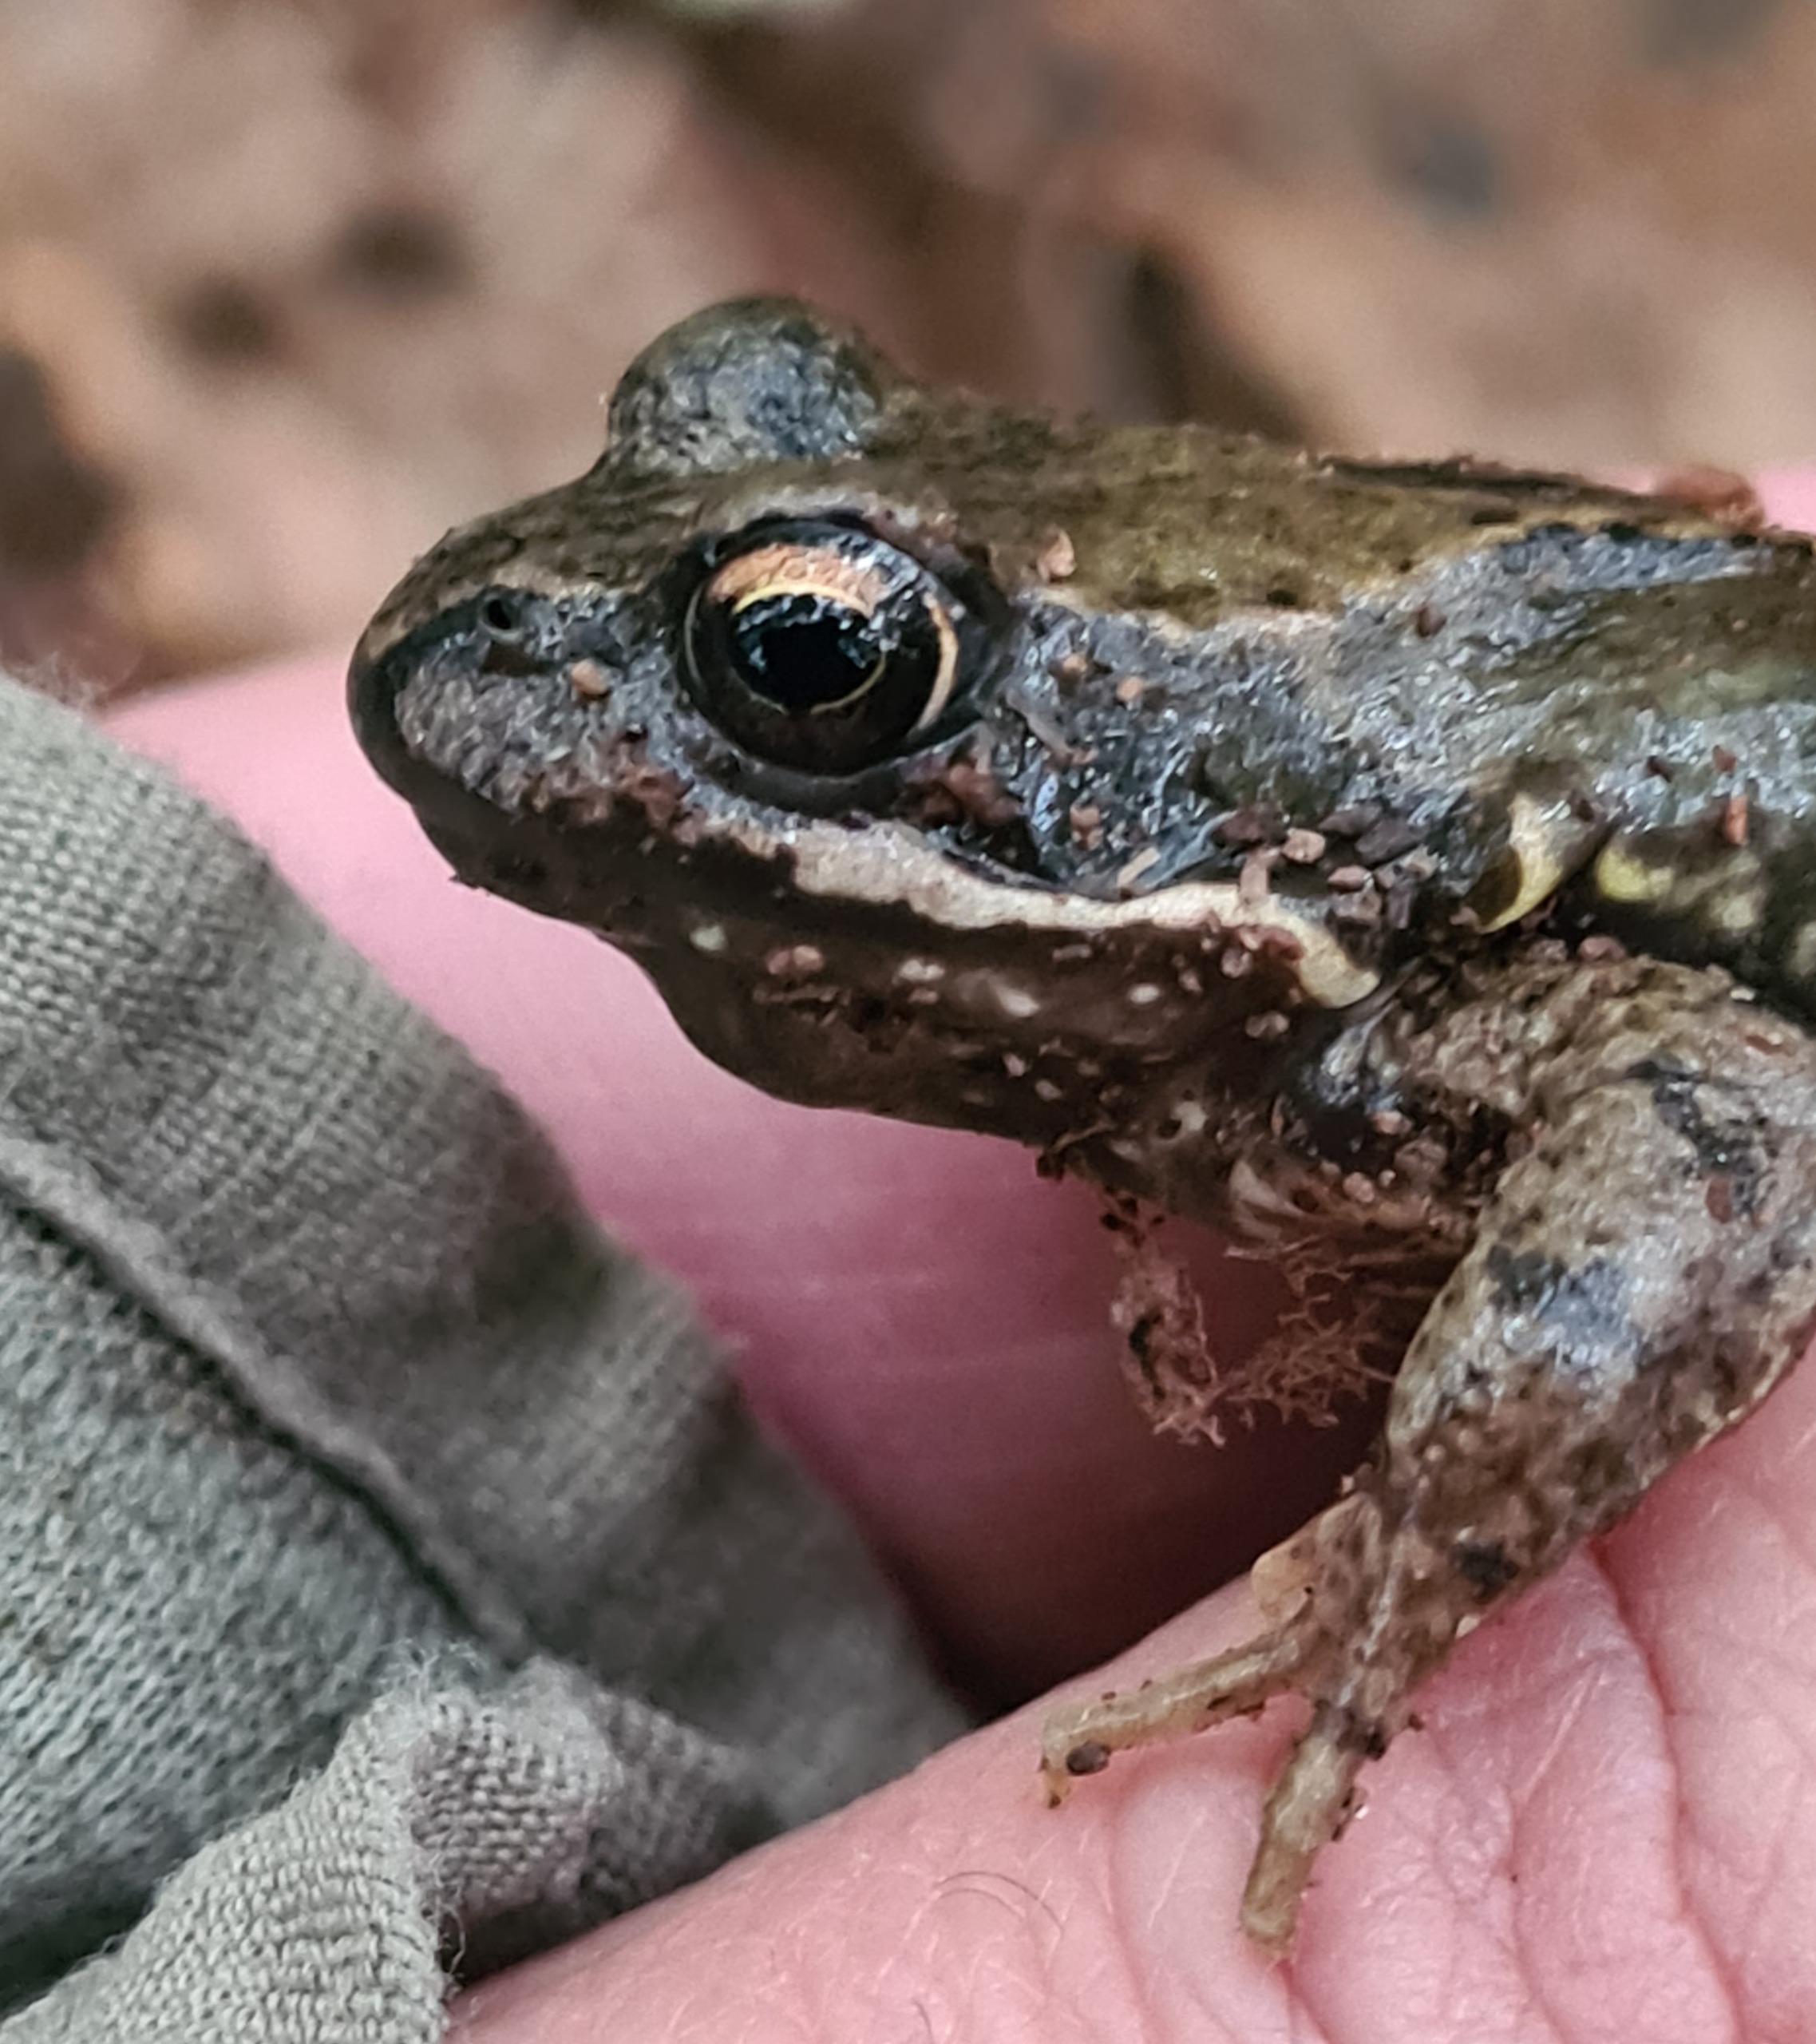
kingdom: Animalia
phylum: Chordata
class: Amphibia
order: Anura
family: Ranidae
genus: Rana
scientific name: Rana temporaria
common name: Butsnudet frø
